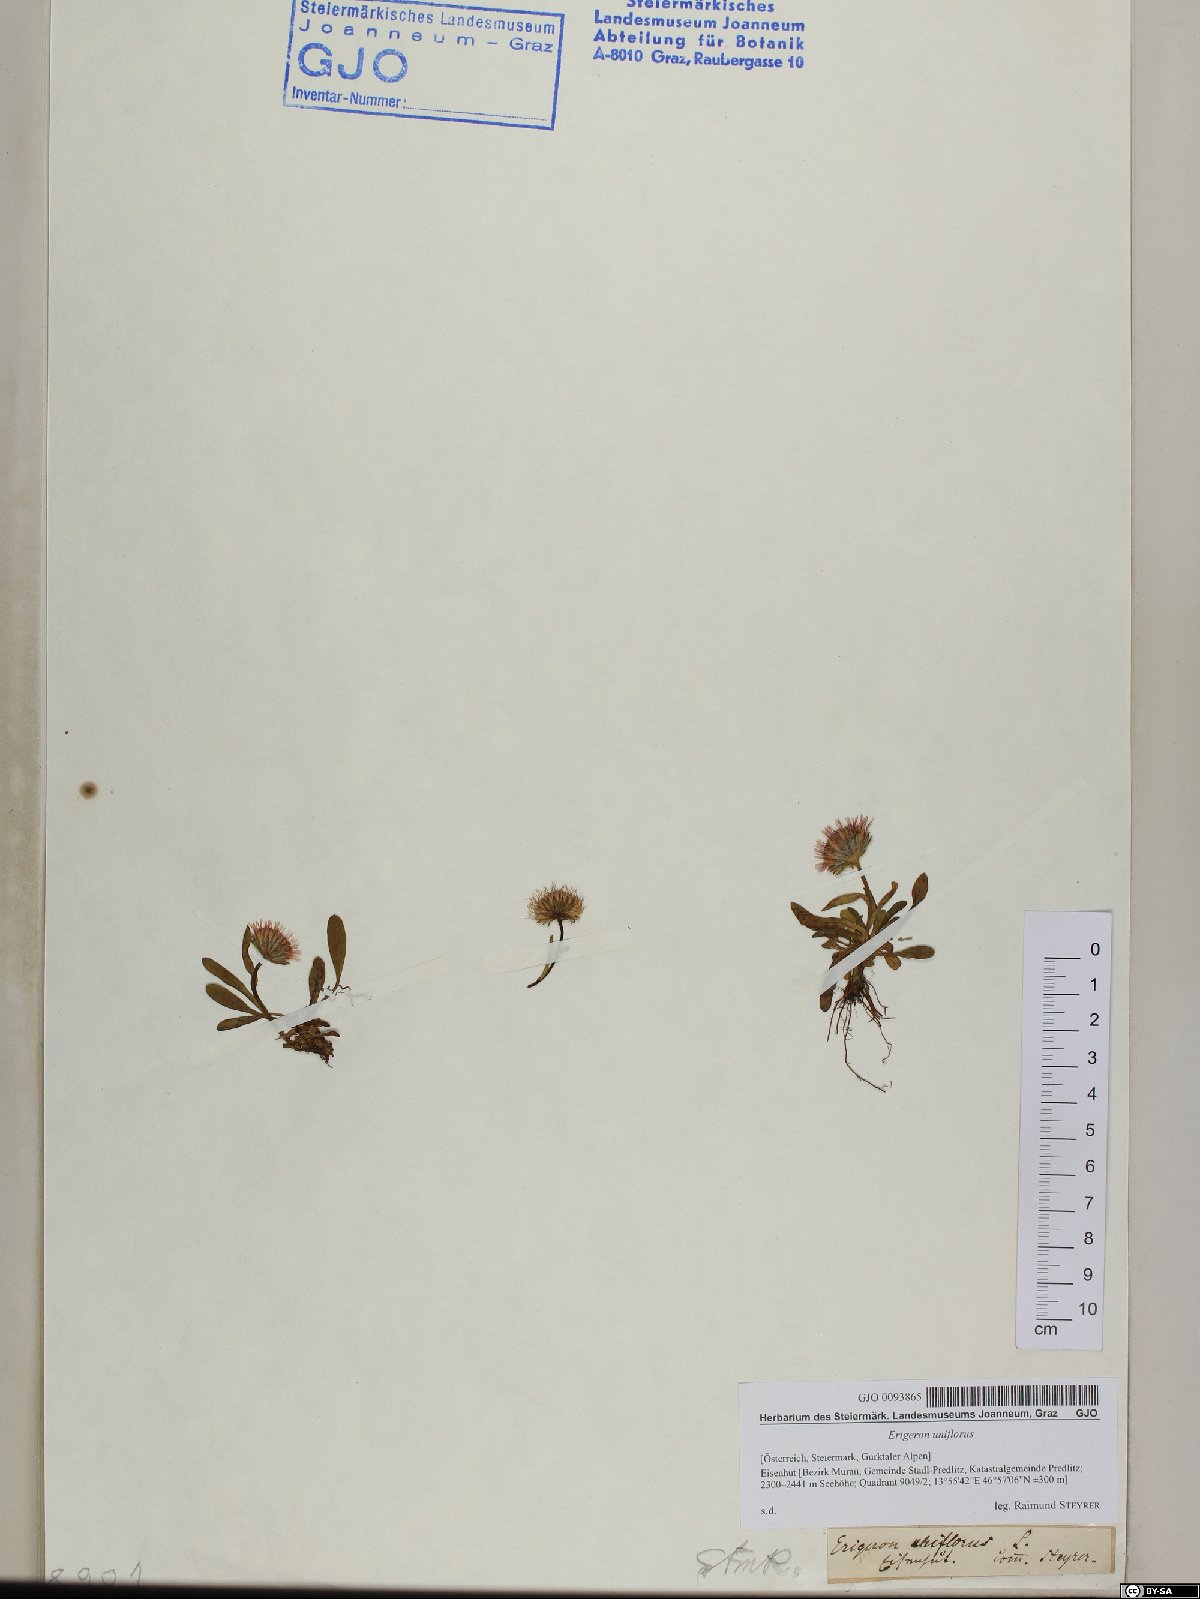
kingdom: Plantae
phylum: Tracheophyta
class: Magnoliopsida
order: Asterales
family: Asteraceae
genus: Erigeron
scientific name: Erigeron uniflorus
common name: Northern daisy
